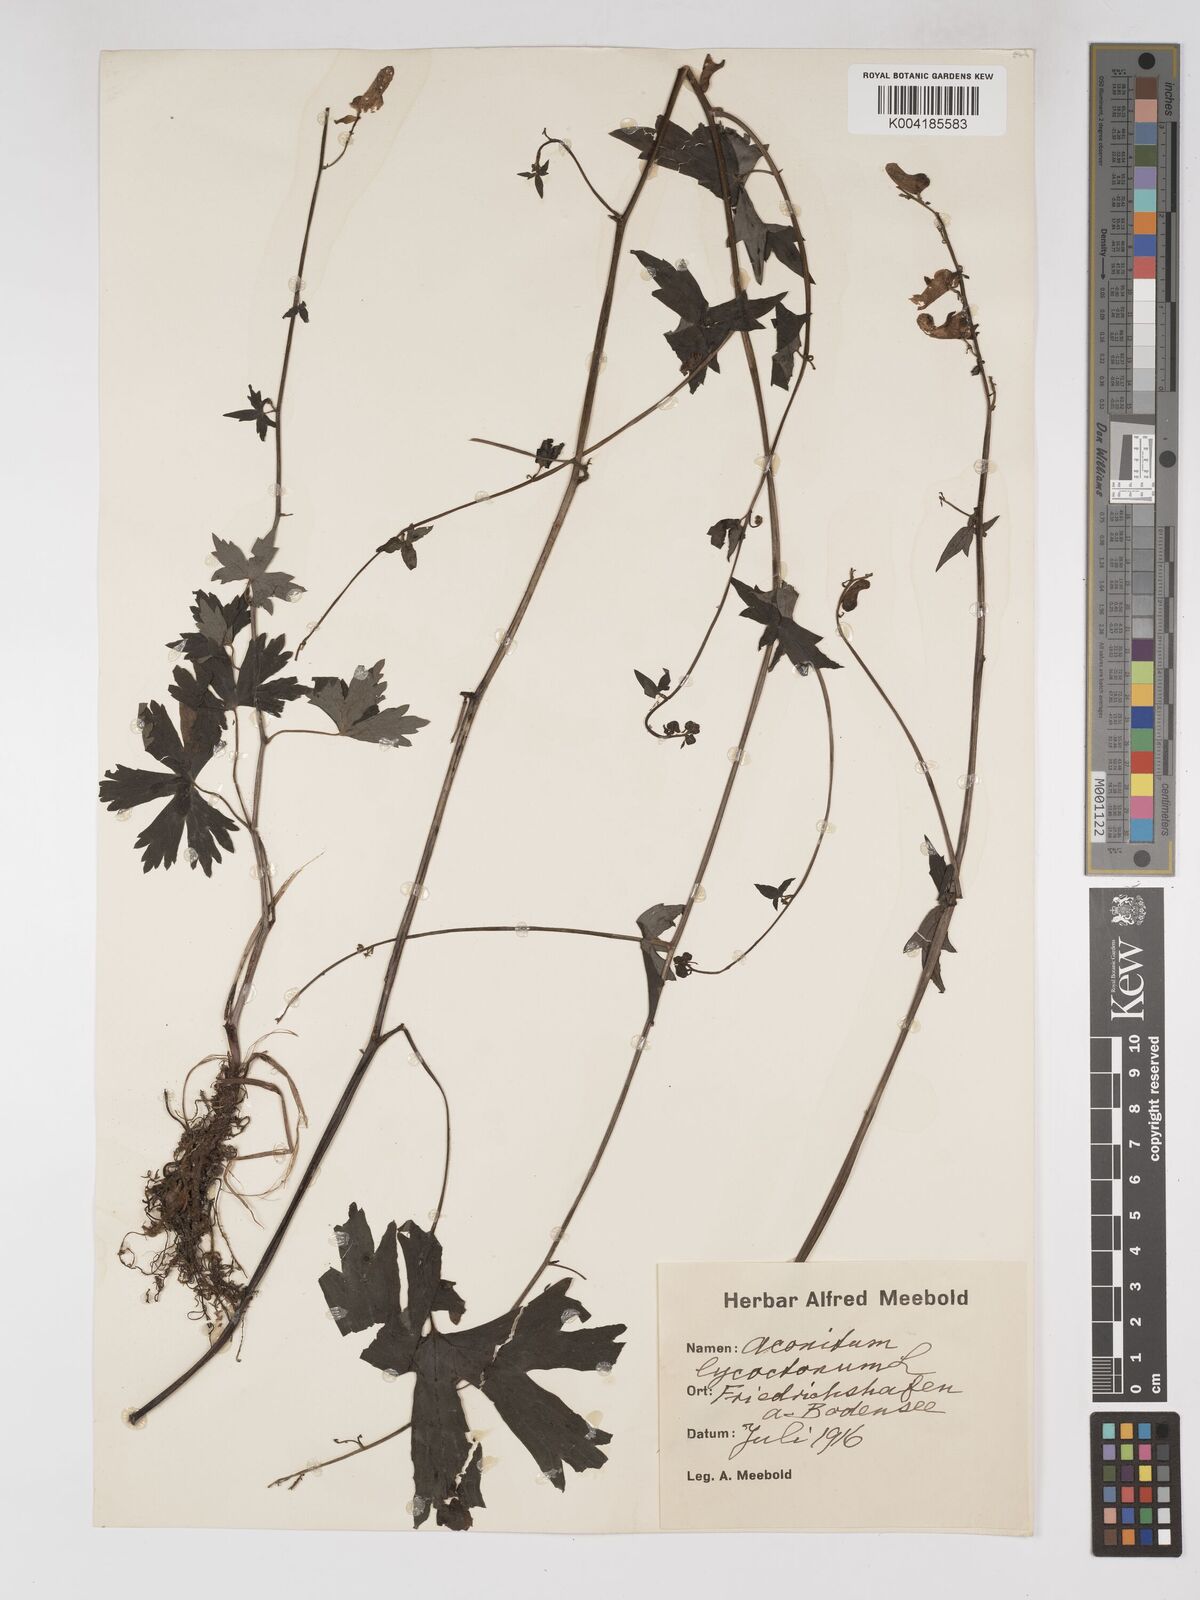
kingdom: Plantae
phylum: Tracheophyta
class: Magnoliopsida
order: Ranunculales
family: Ranunculaceae
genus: Aconitum
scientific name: Aconitum lycoctonum
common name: Wolf's-bane
